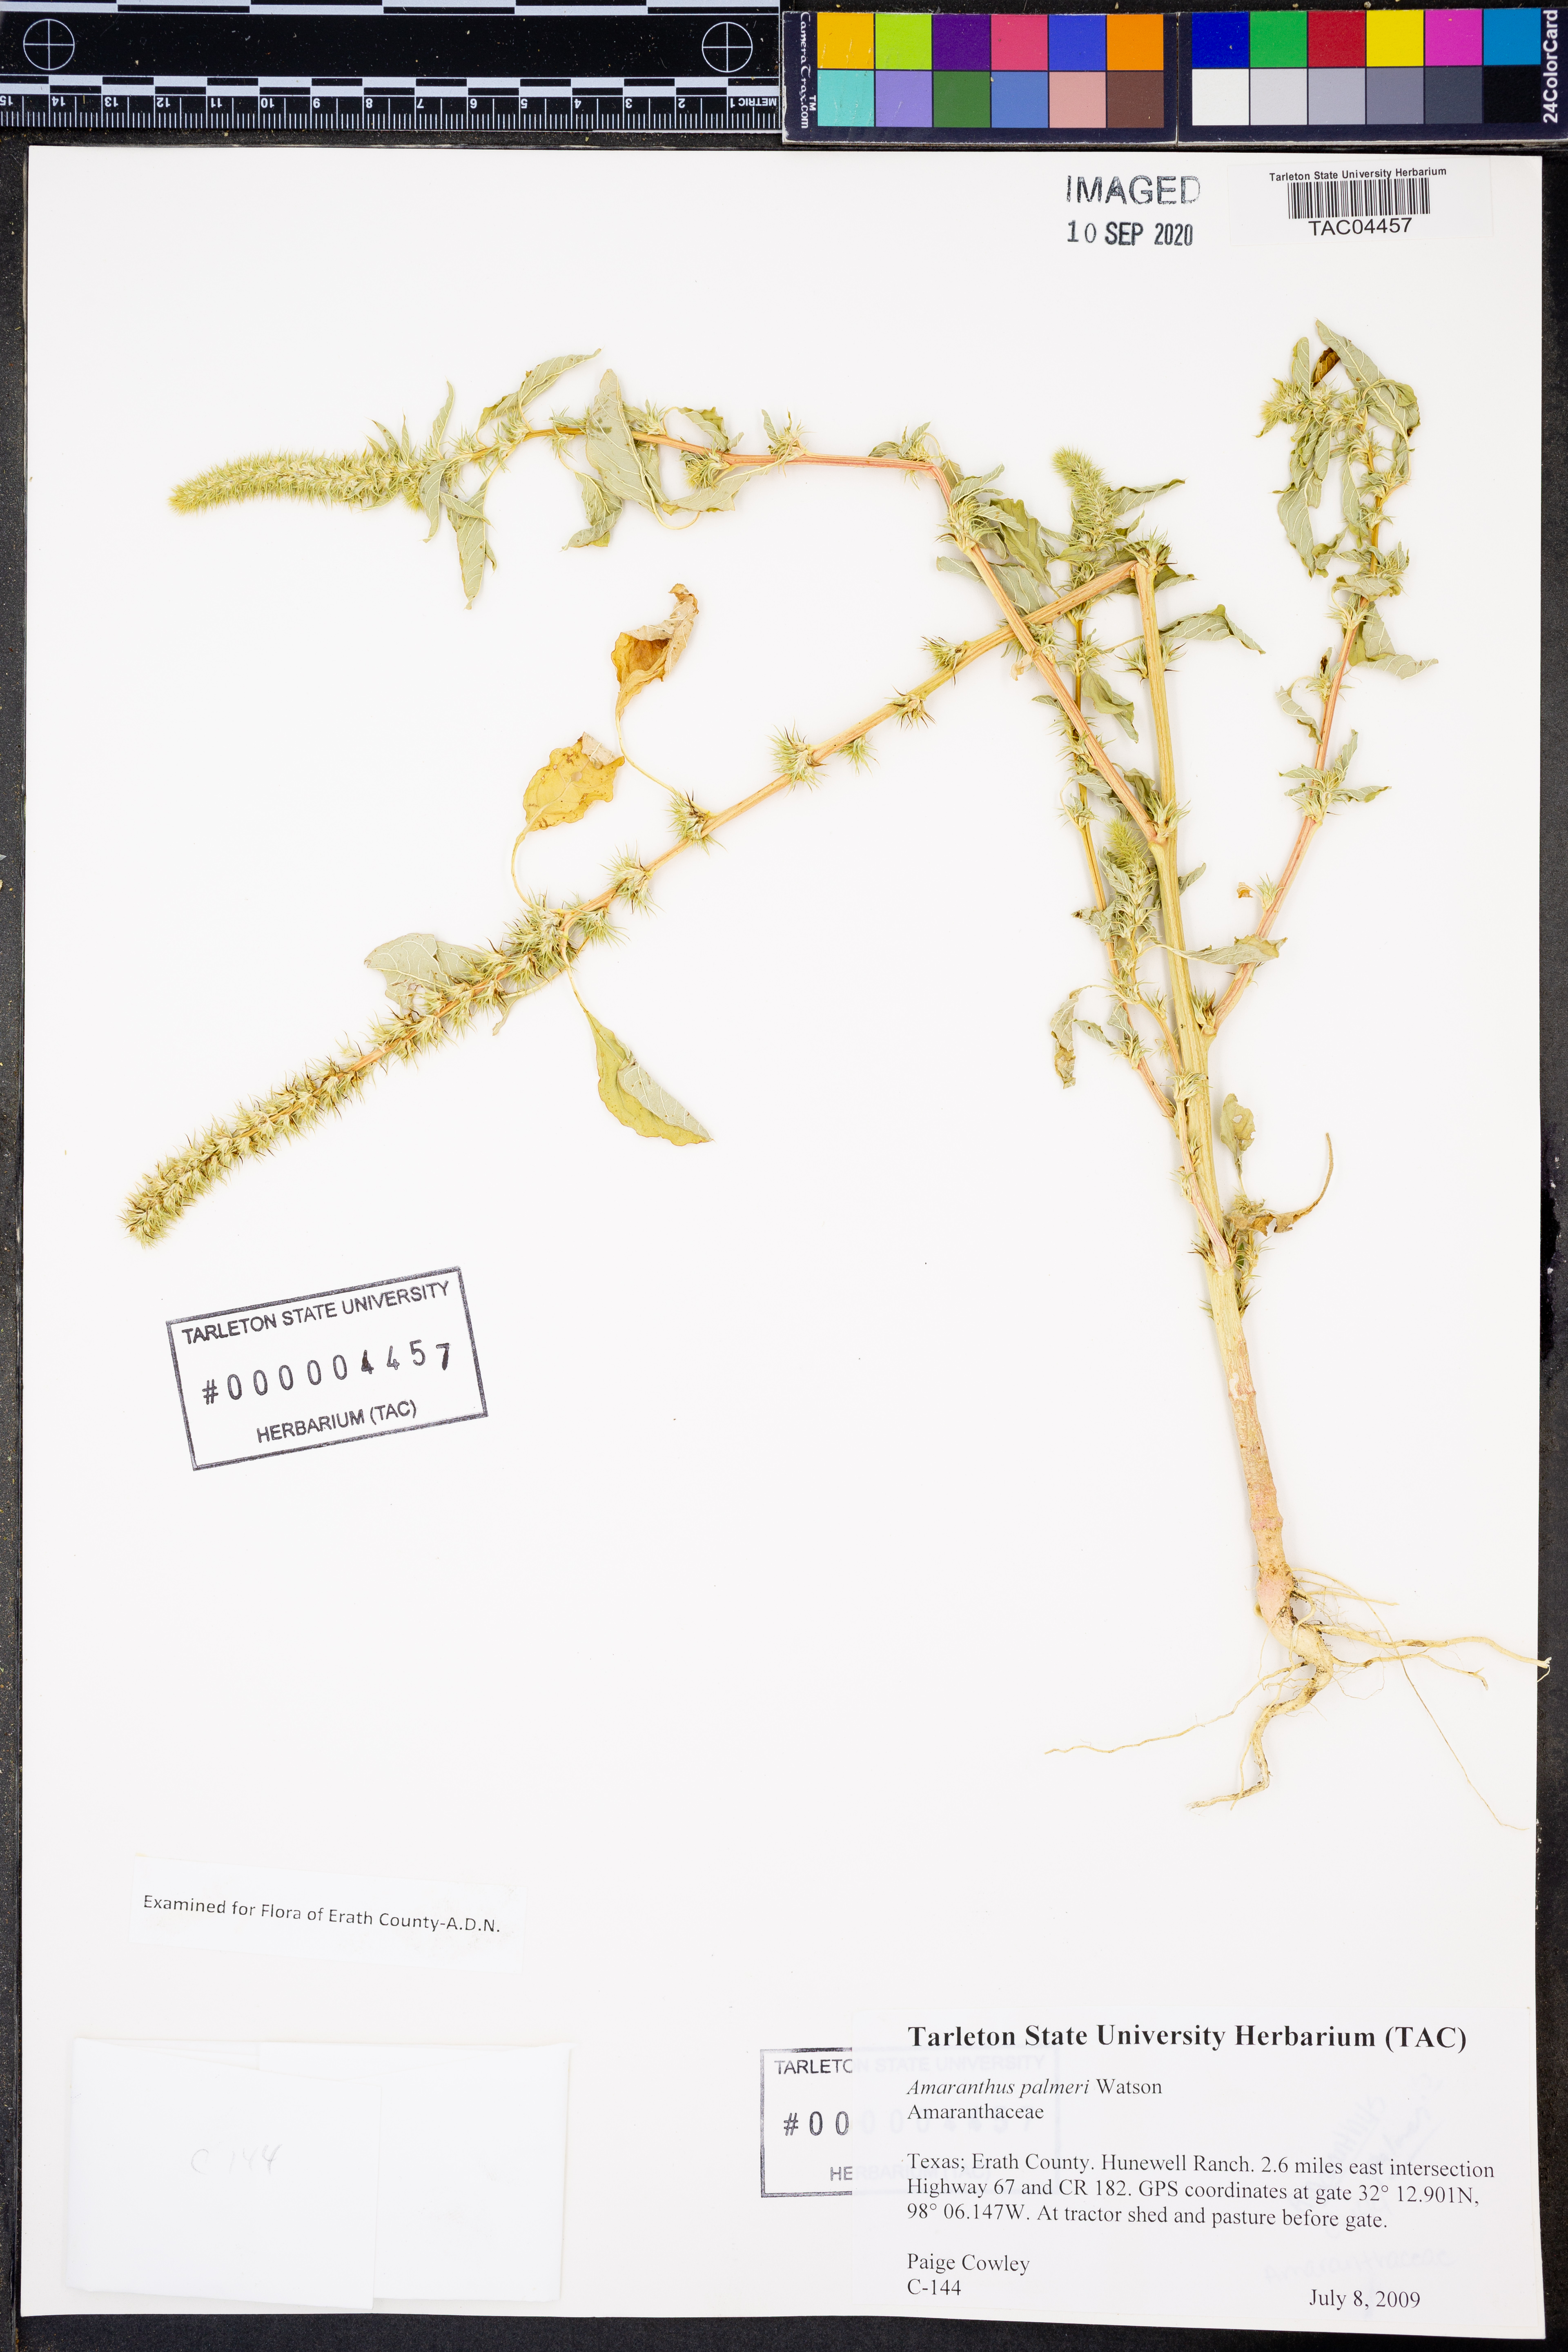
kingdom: Plantae
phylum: Tracheophyta
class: Magnoliopsida
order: Caryophyllales
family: Amaranthaceae
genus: Amaranthus
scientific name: Amaranthus palmeri
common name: Dioecious amaranth
